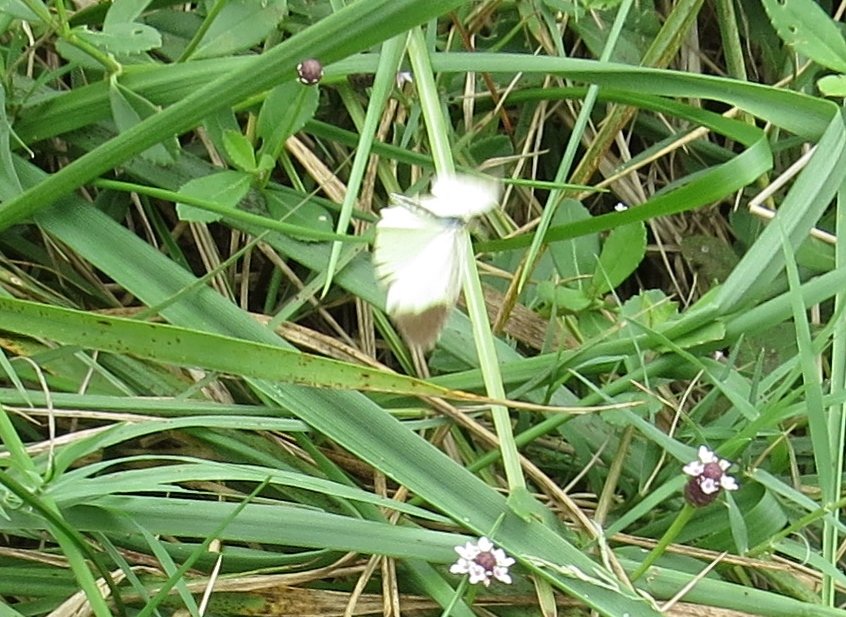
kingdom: Animalia
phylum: Arthropoda
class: Insecta
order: Lepidoptera
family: Pieridae
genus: Pyrisitia
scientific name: Pyrisitia lisa
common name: Little Yellow
